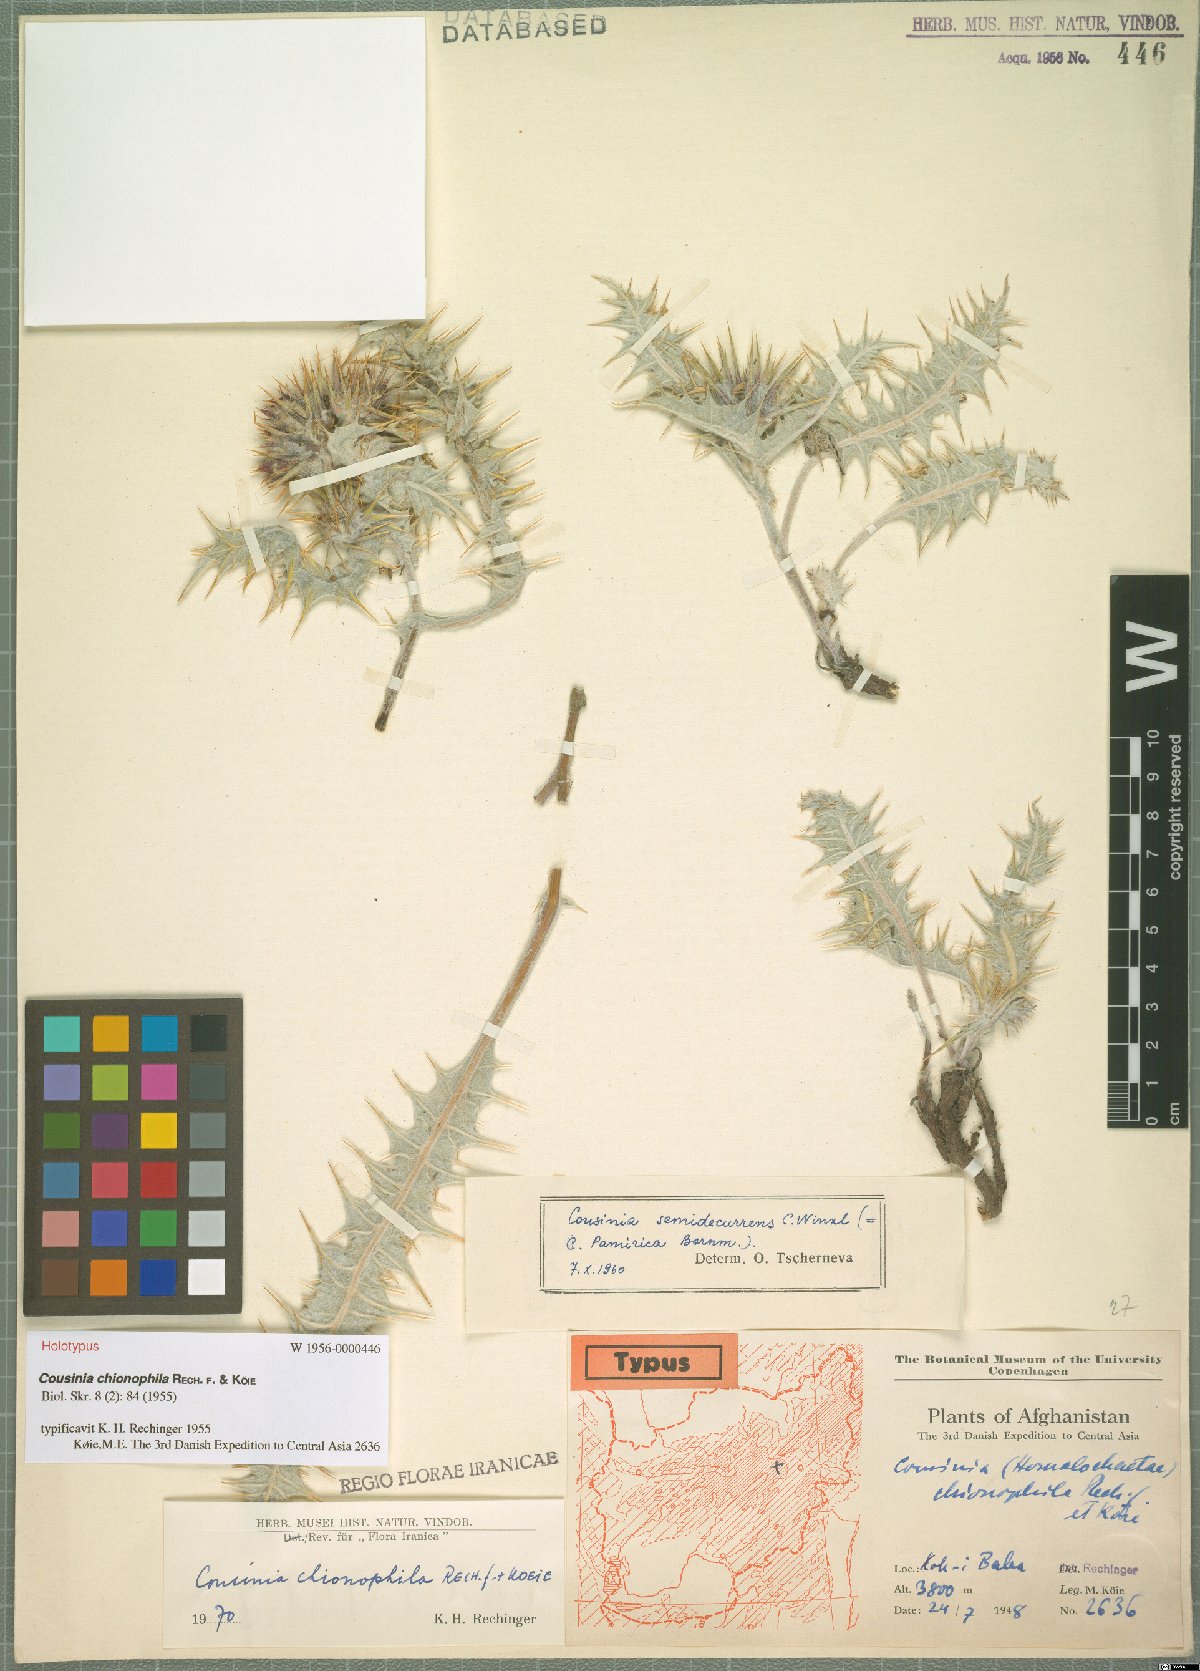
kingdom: Plantae
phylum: Tracheophyta
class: Magnoliopsida
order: Asterales
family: Asteraceae
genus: Cousinia
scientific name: Cousinia chionophila
